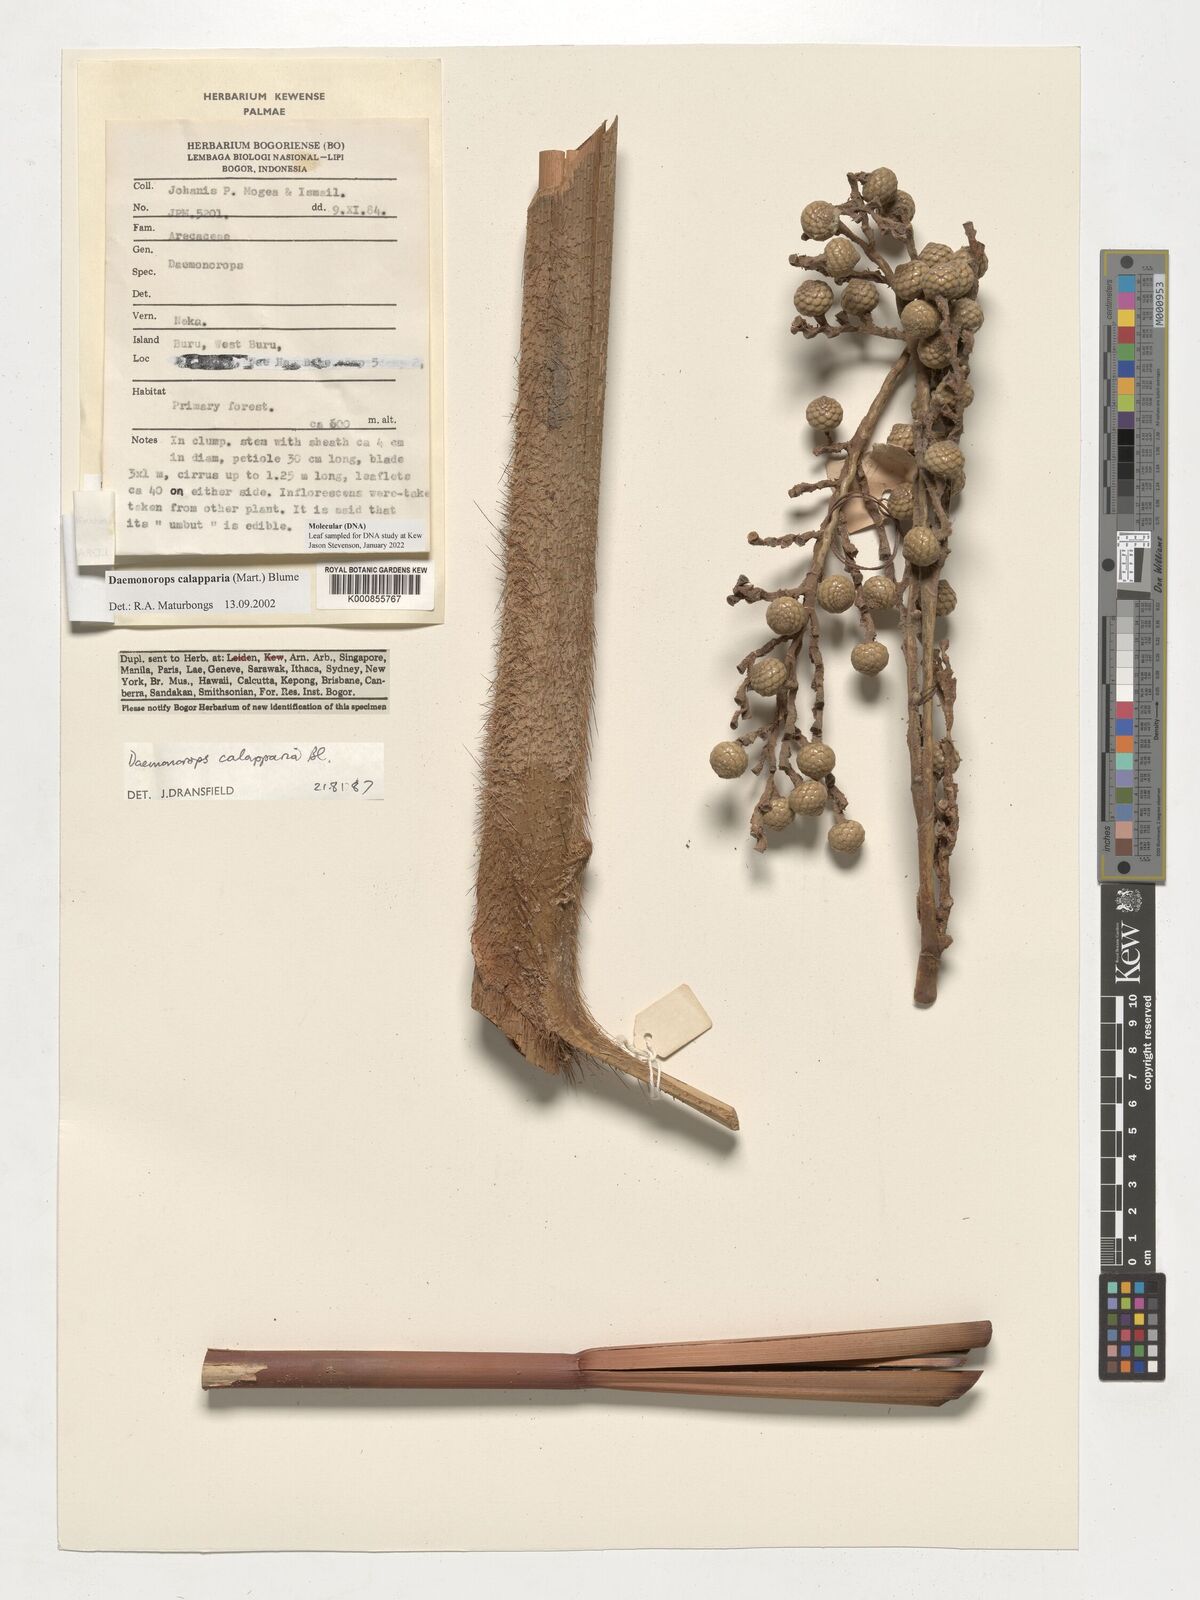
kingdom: Plantae
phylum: Tracheophyta
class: Liliopsida
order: Arecales
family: Arecaceae
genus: Calamus
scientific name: Calamus calapparius
